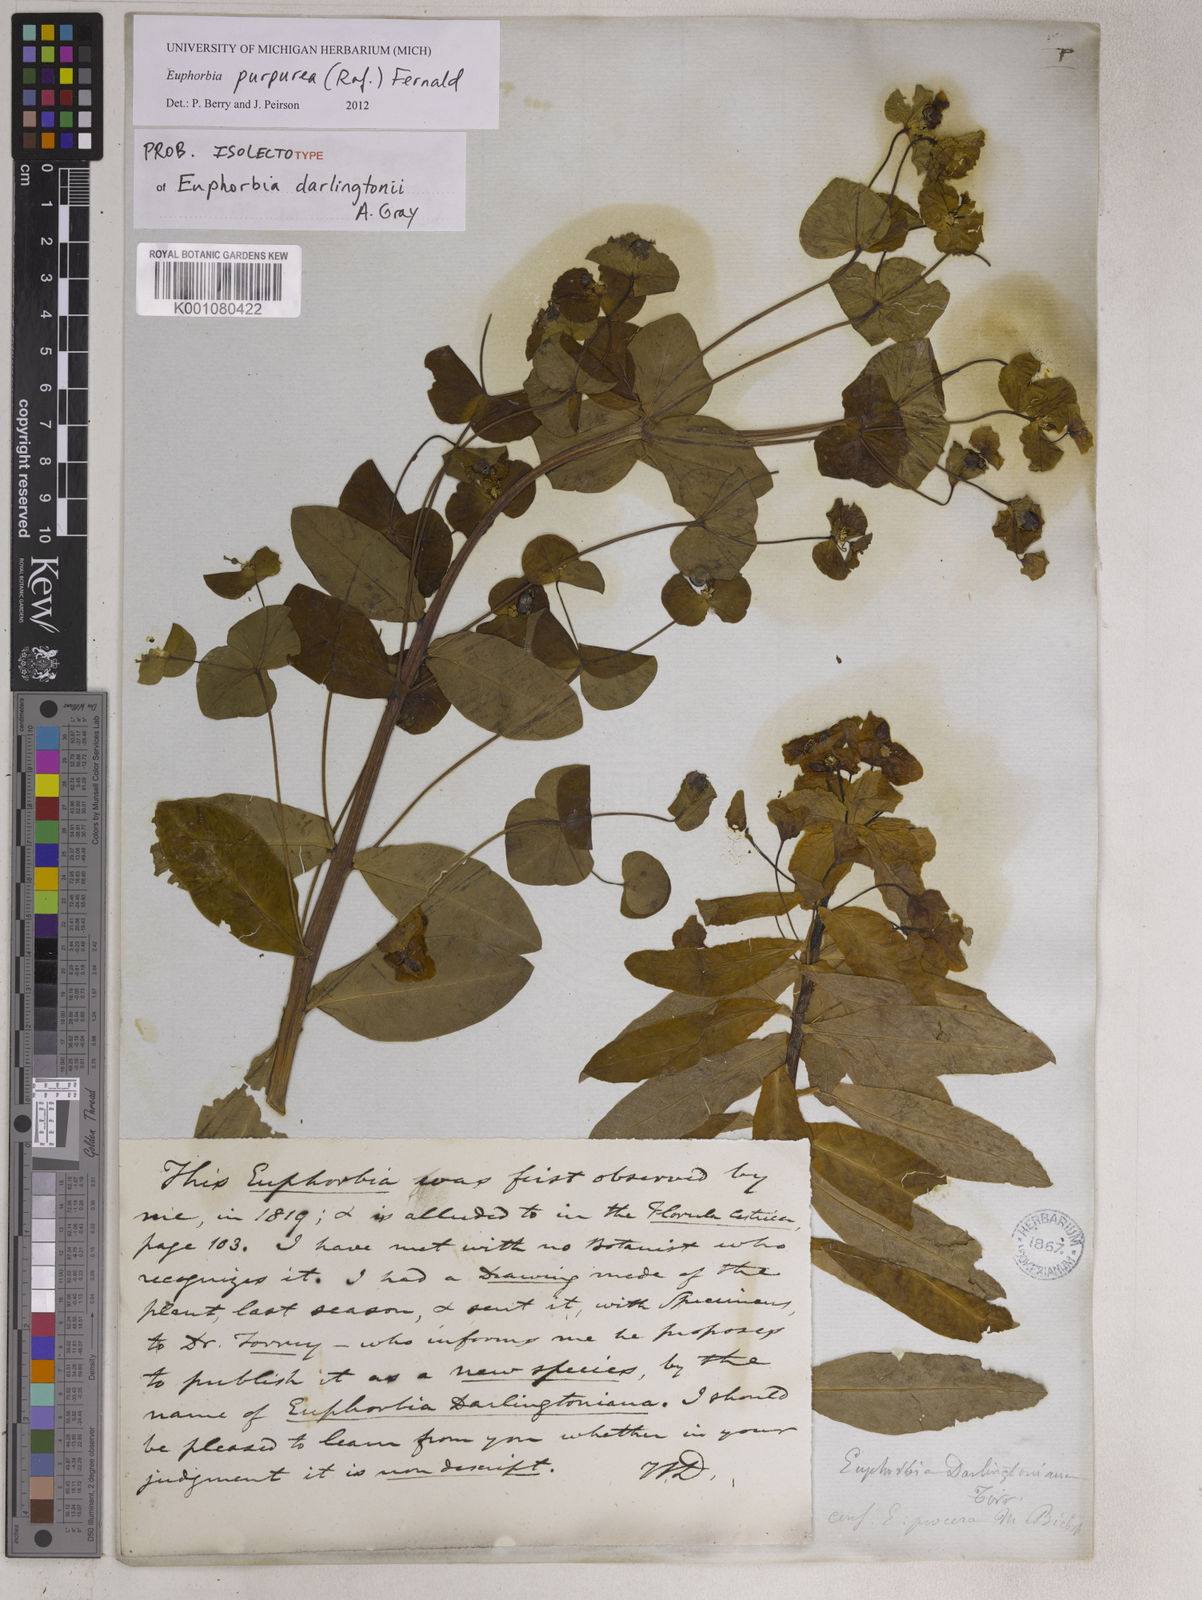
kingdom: Plantae
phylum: Tracheophyta
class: Magnoliopsida
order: Malpighiales
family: Euphorbiaceae
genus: Euphorbia
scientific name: Euphorbia purpurea
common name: Darlington's spurge
